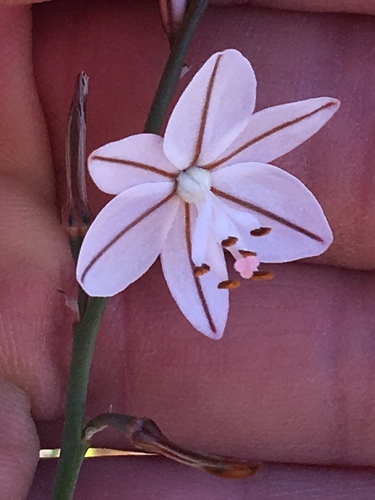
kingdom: Plantae
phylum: Tracheophyta
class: Liliopsida
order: Asparagales
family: Asphodelaceae
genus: Asphodelus
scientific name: Asphodelus fistulosus
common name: Onionweed
